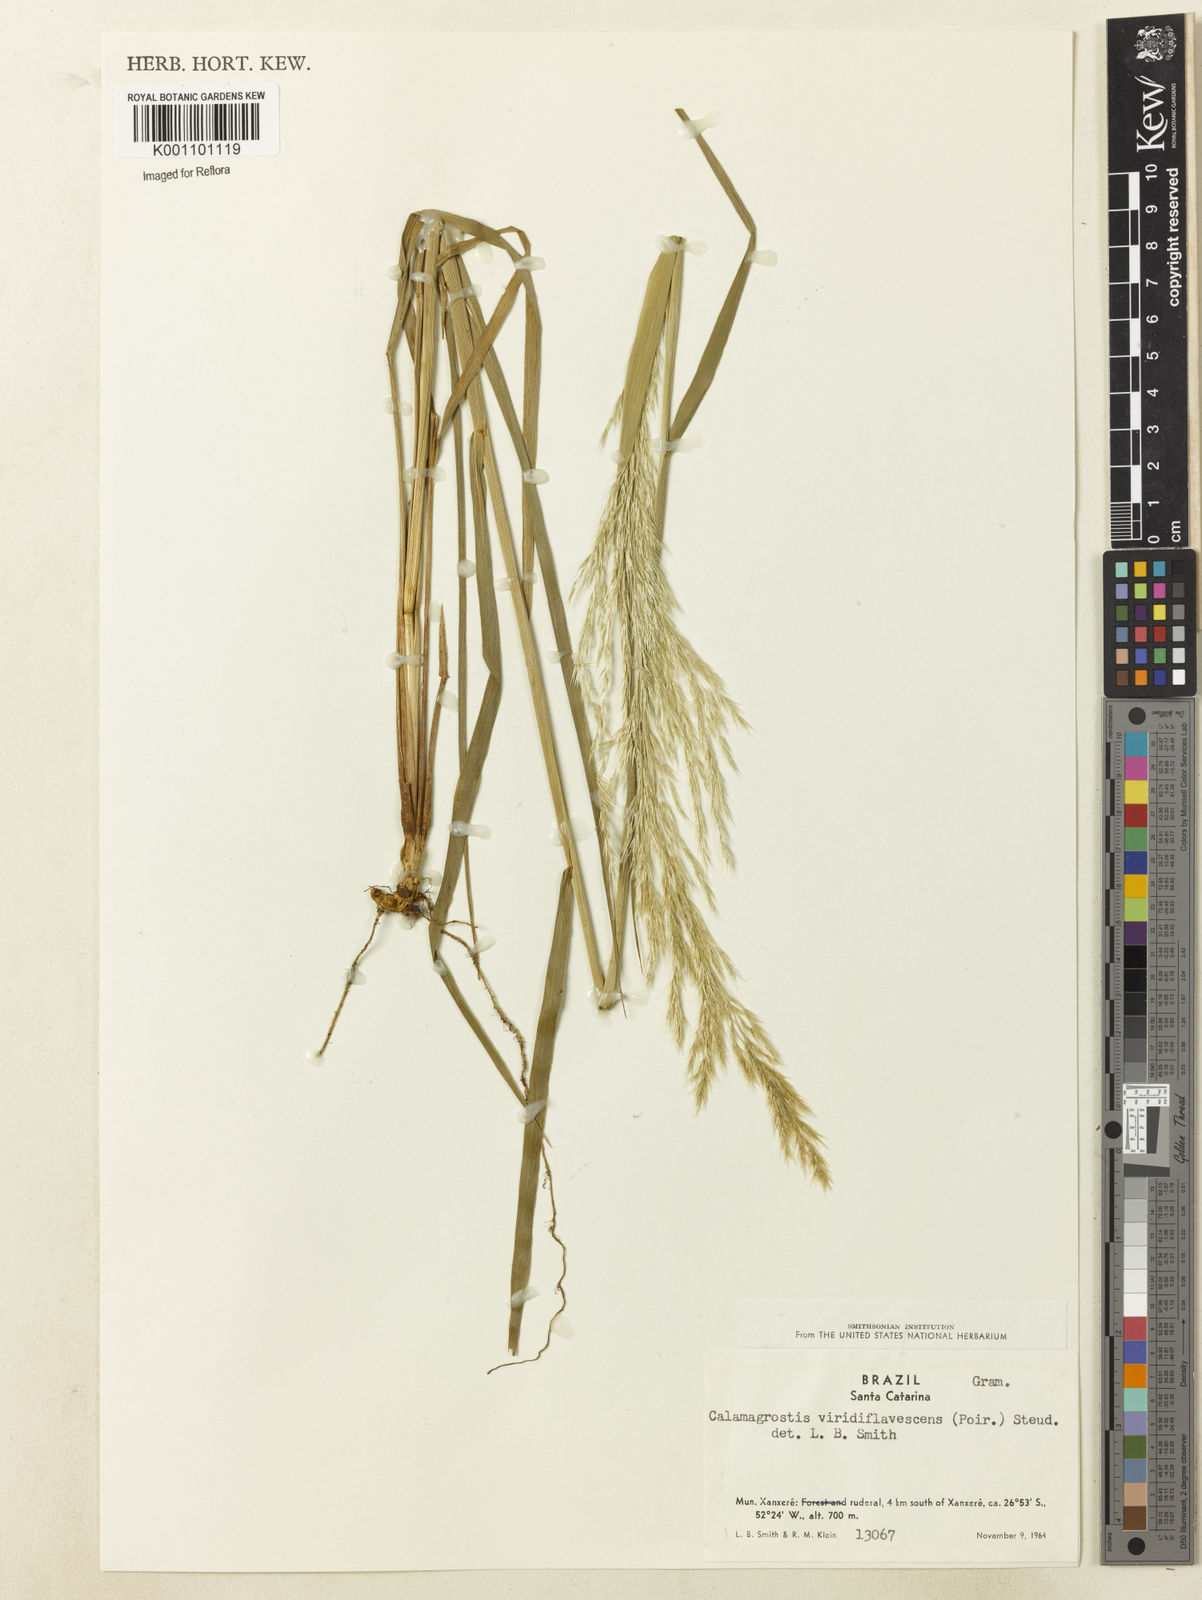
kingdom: Plantae
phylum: Tracheophyta
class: Liliopsida
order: Poales
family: Poaceae
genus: Cinnagrostis
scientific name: Cinnagrostis viridiflavescens
